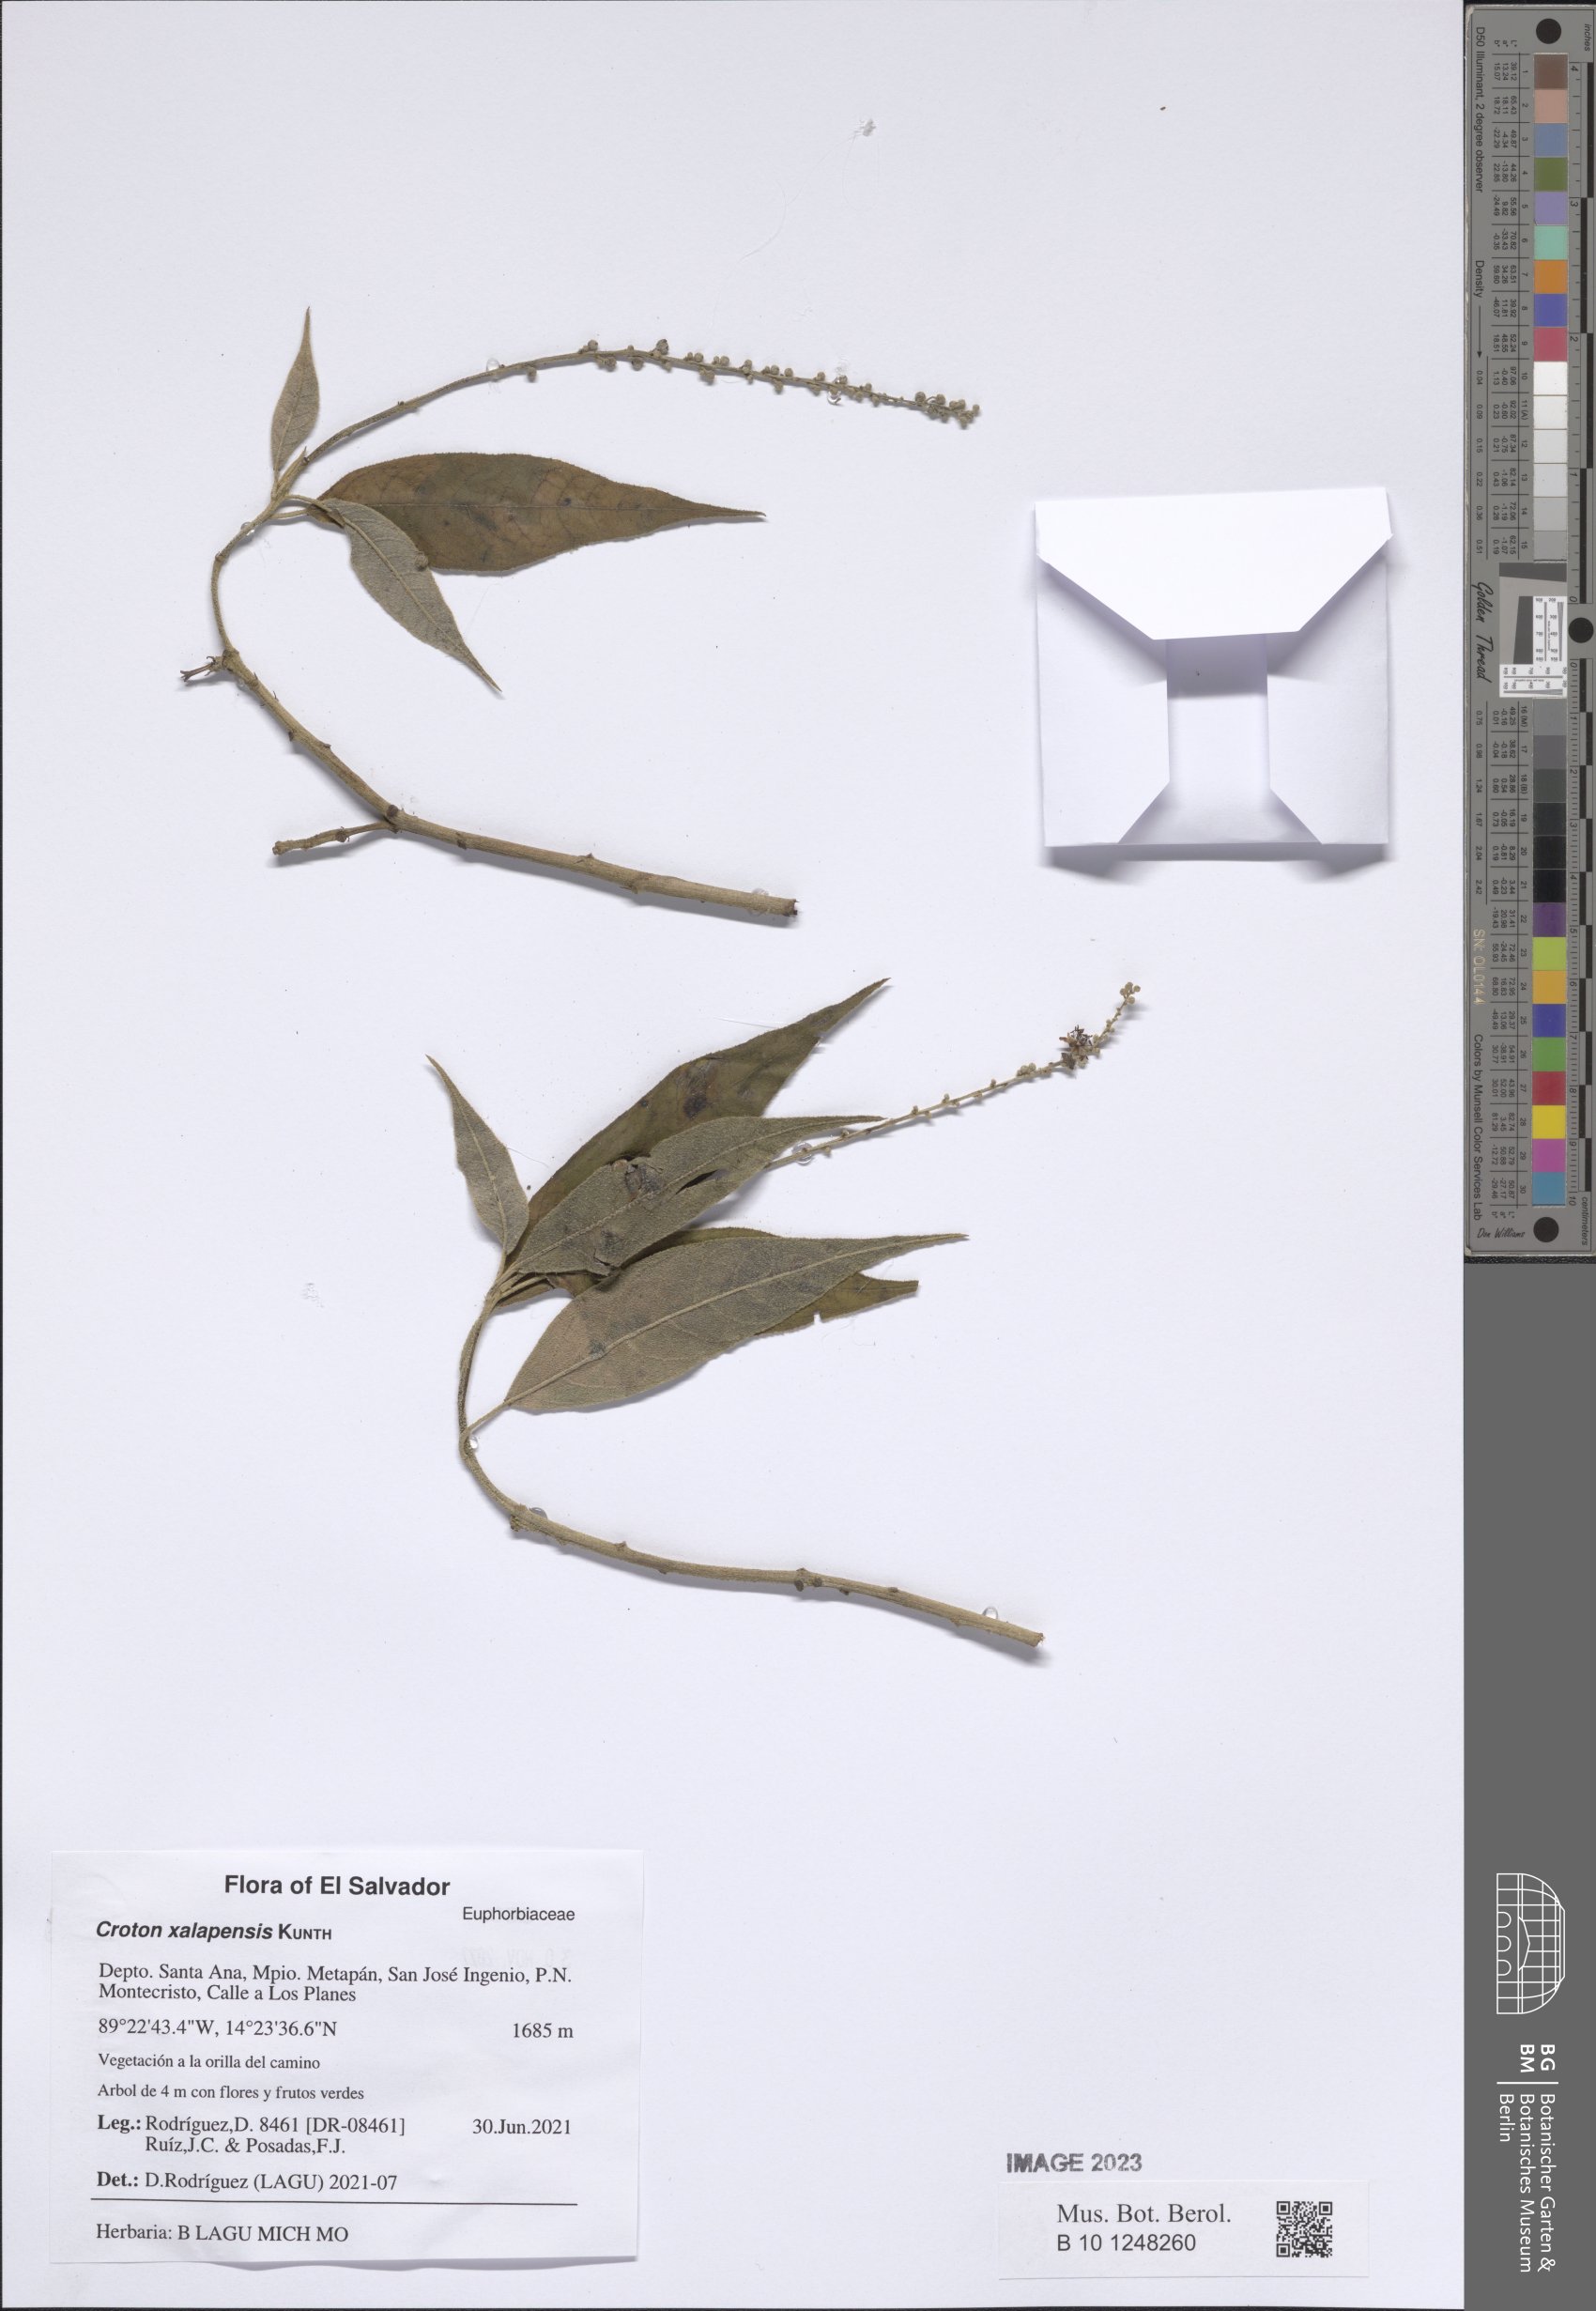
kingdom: Plantae
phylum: Tracheophyta
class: Magnoliopsida
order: Malpighiales
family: Euphorbiaceae
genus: Croton
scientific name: Croton xalapensis
